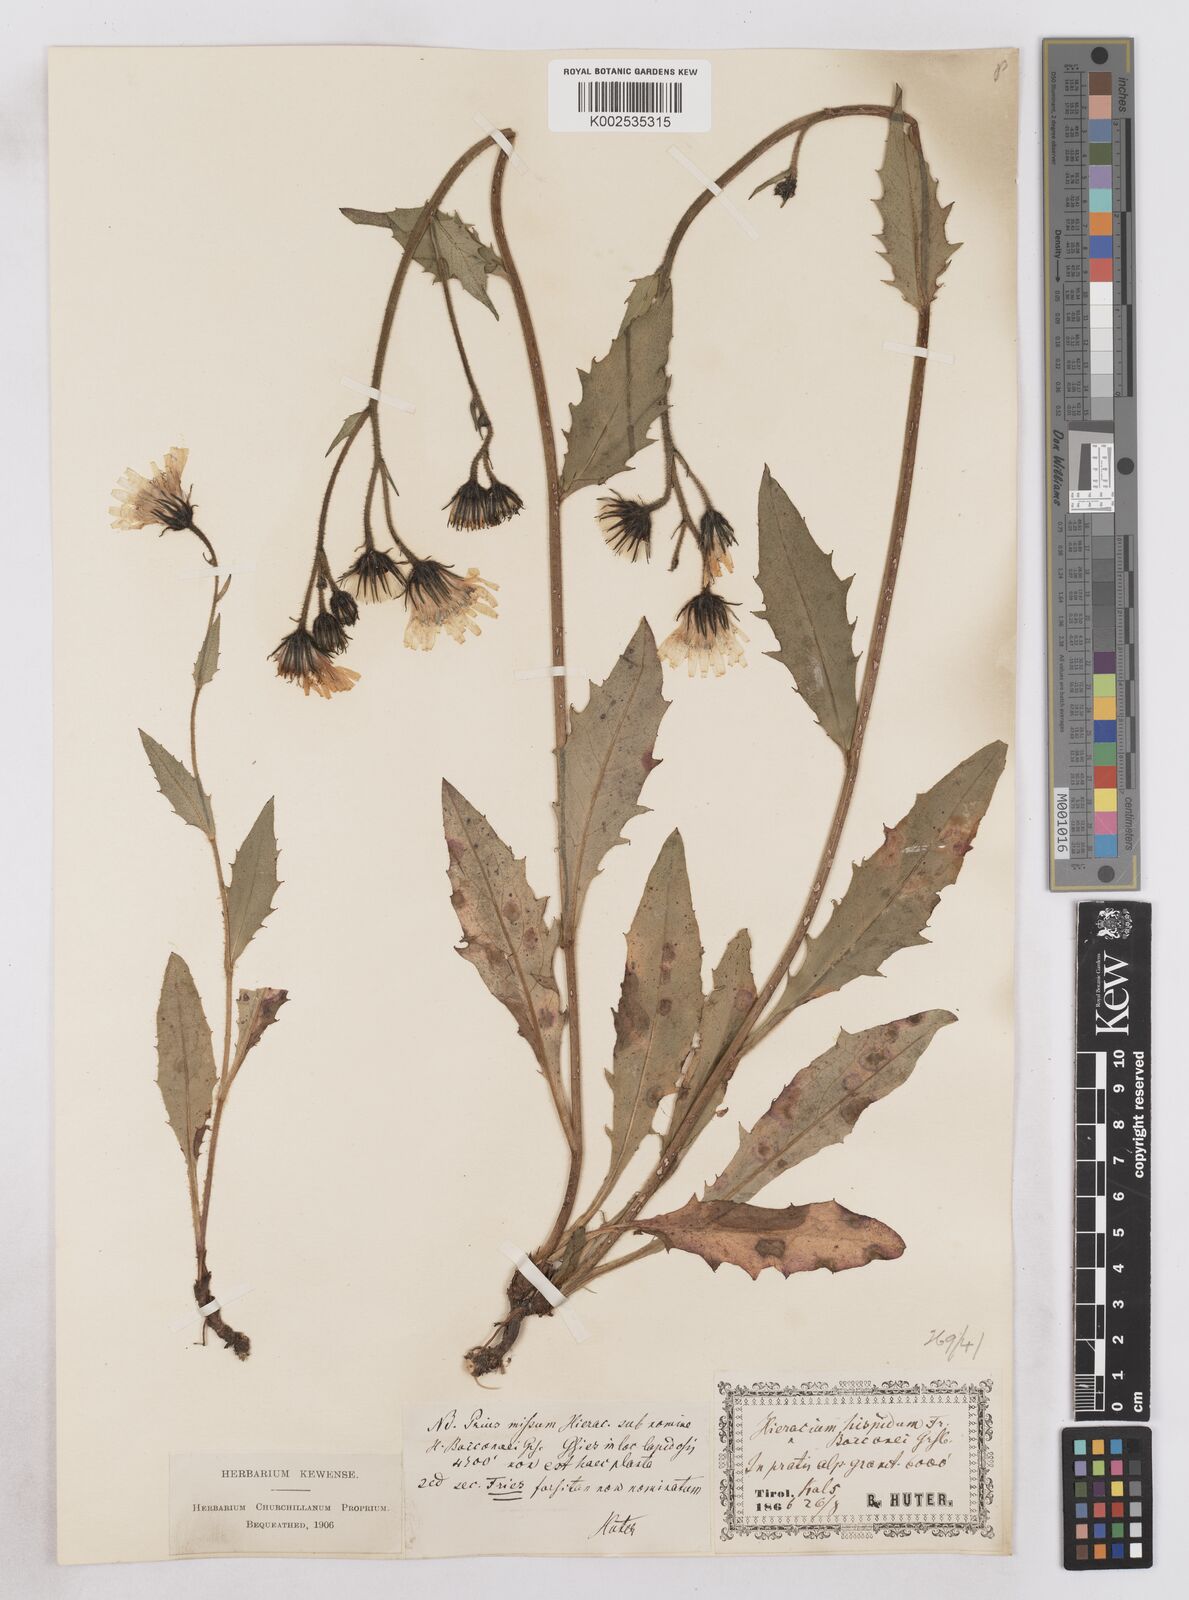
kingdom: Plantae
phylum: Tracheophyta
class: Magnoliopsida
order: Asterales
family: Asteraceae
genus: Hieracium
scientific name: Hieracium simia
